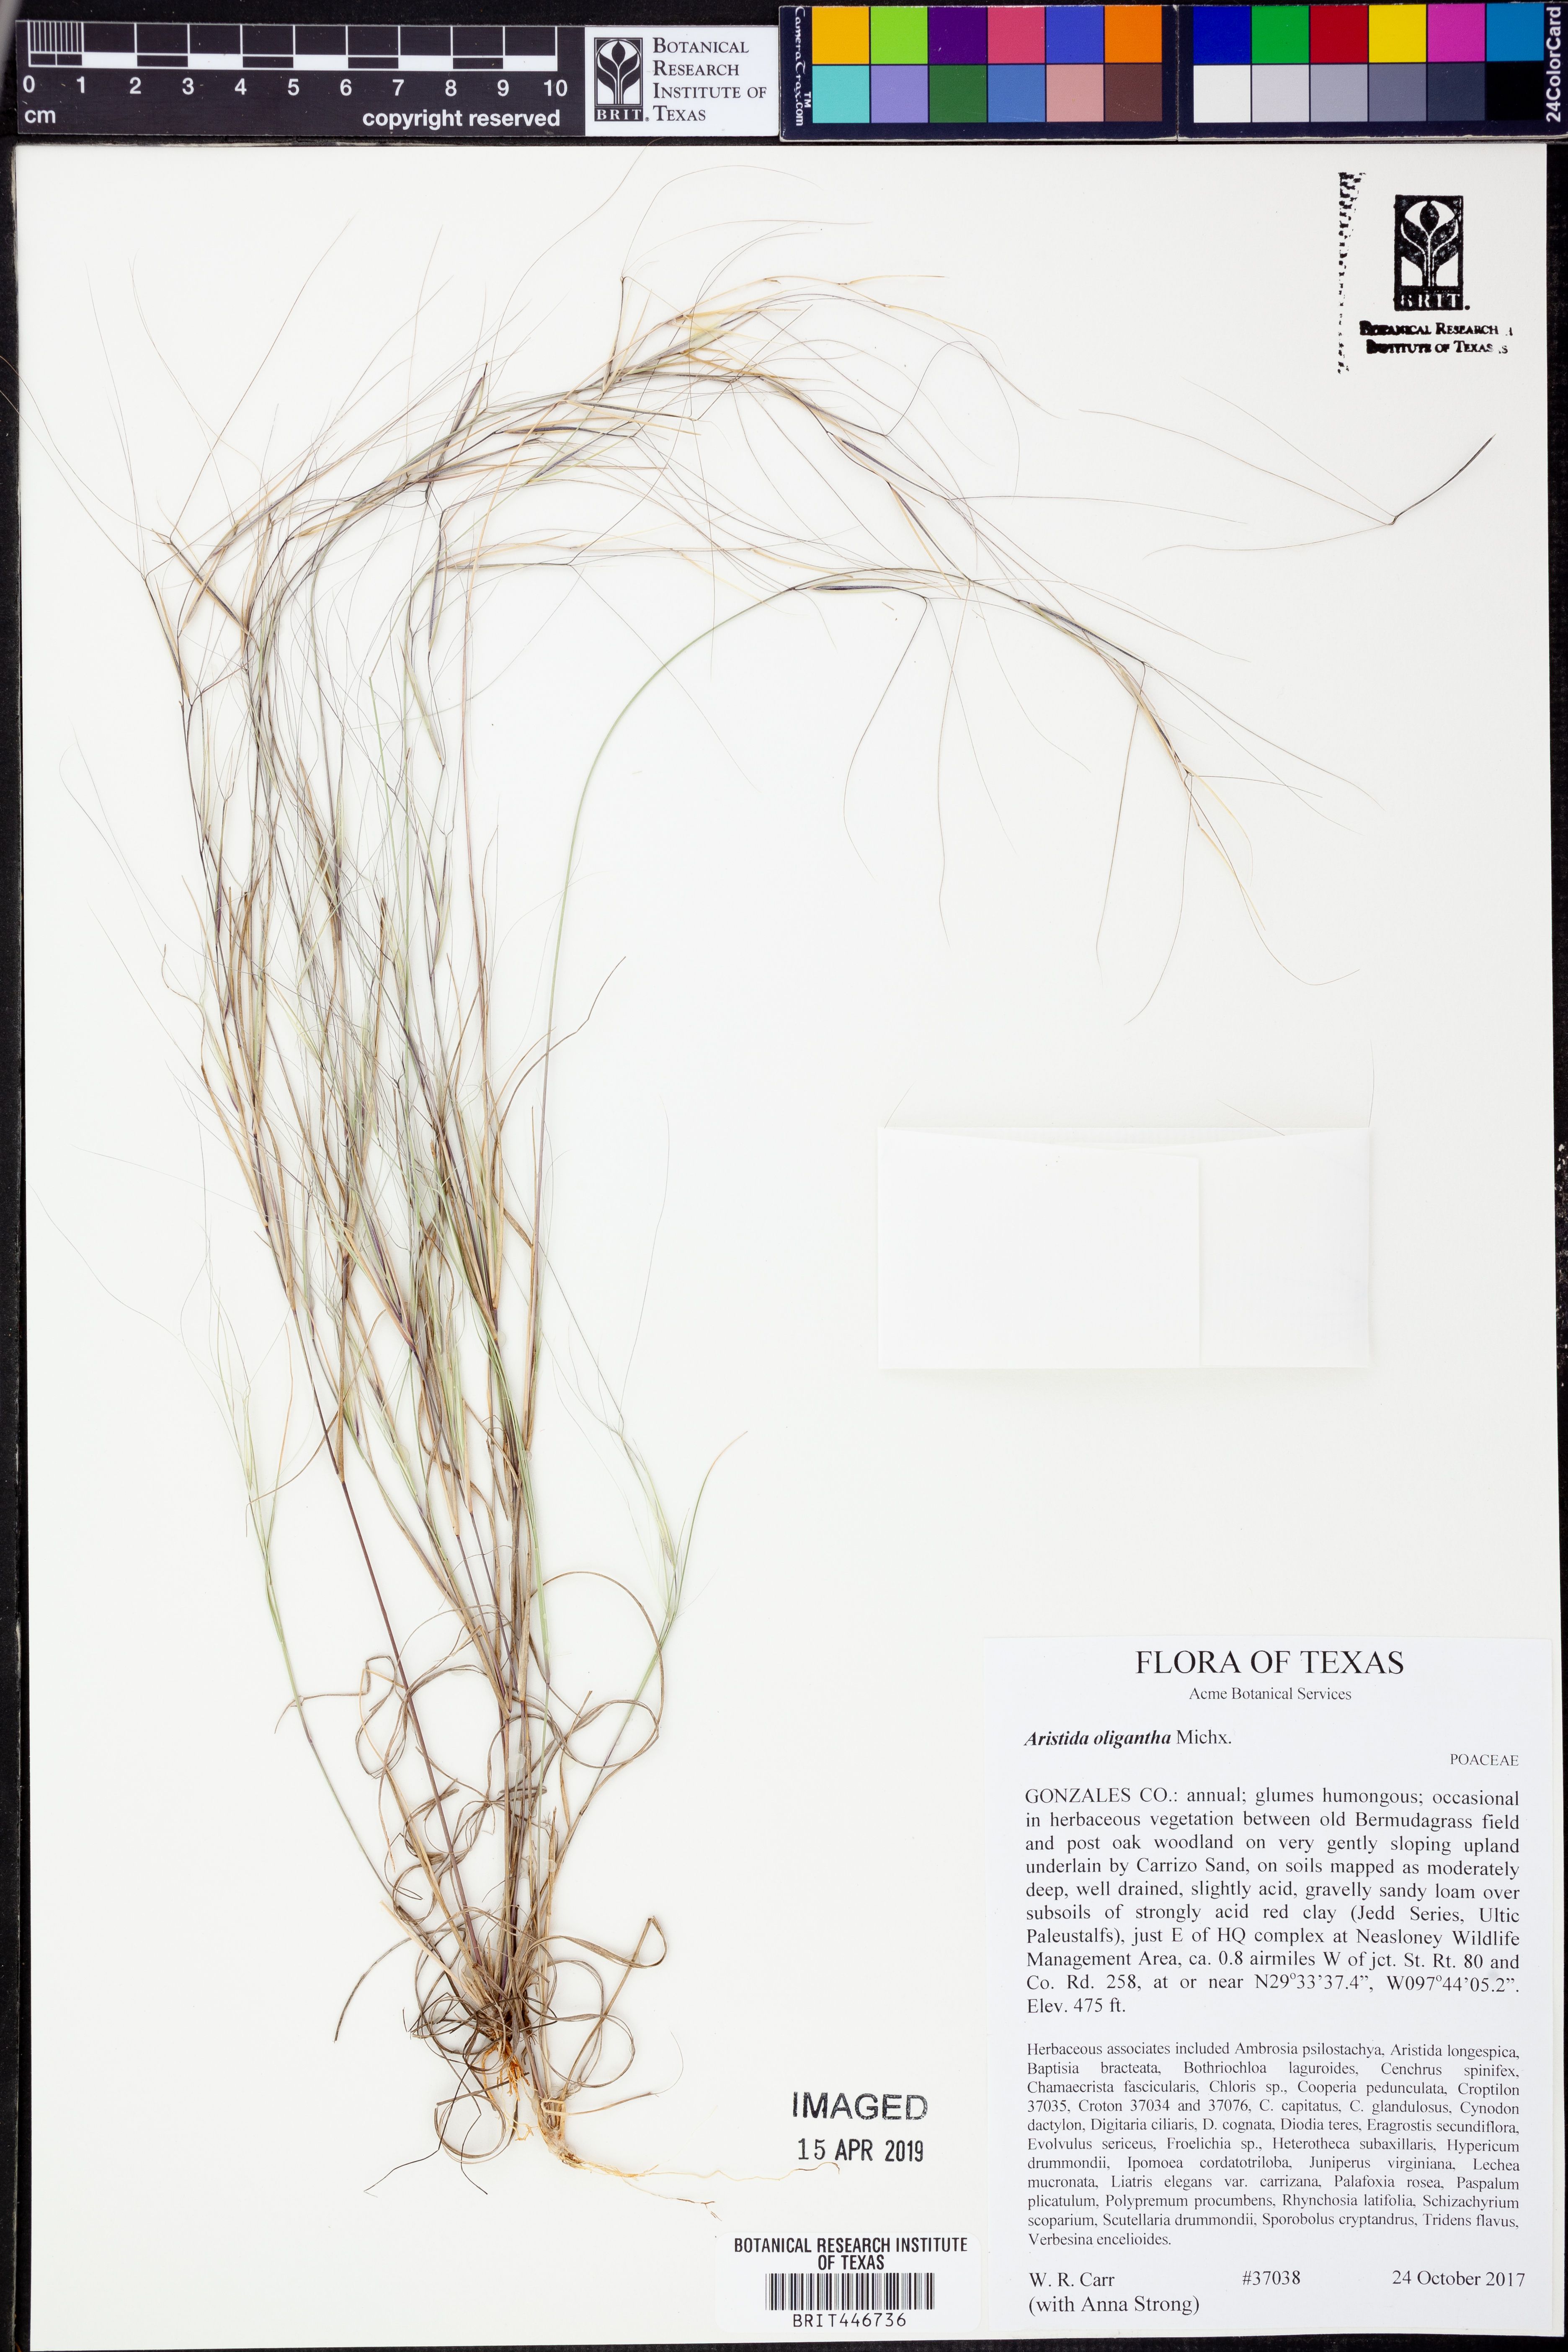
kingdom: Plantae
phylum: Tracheophyta
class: Liliopsida
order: Poales
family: Poaceae
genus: Aristida
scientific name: Aristida oligantha
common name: Few-flowered aristida
